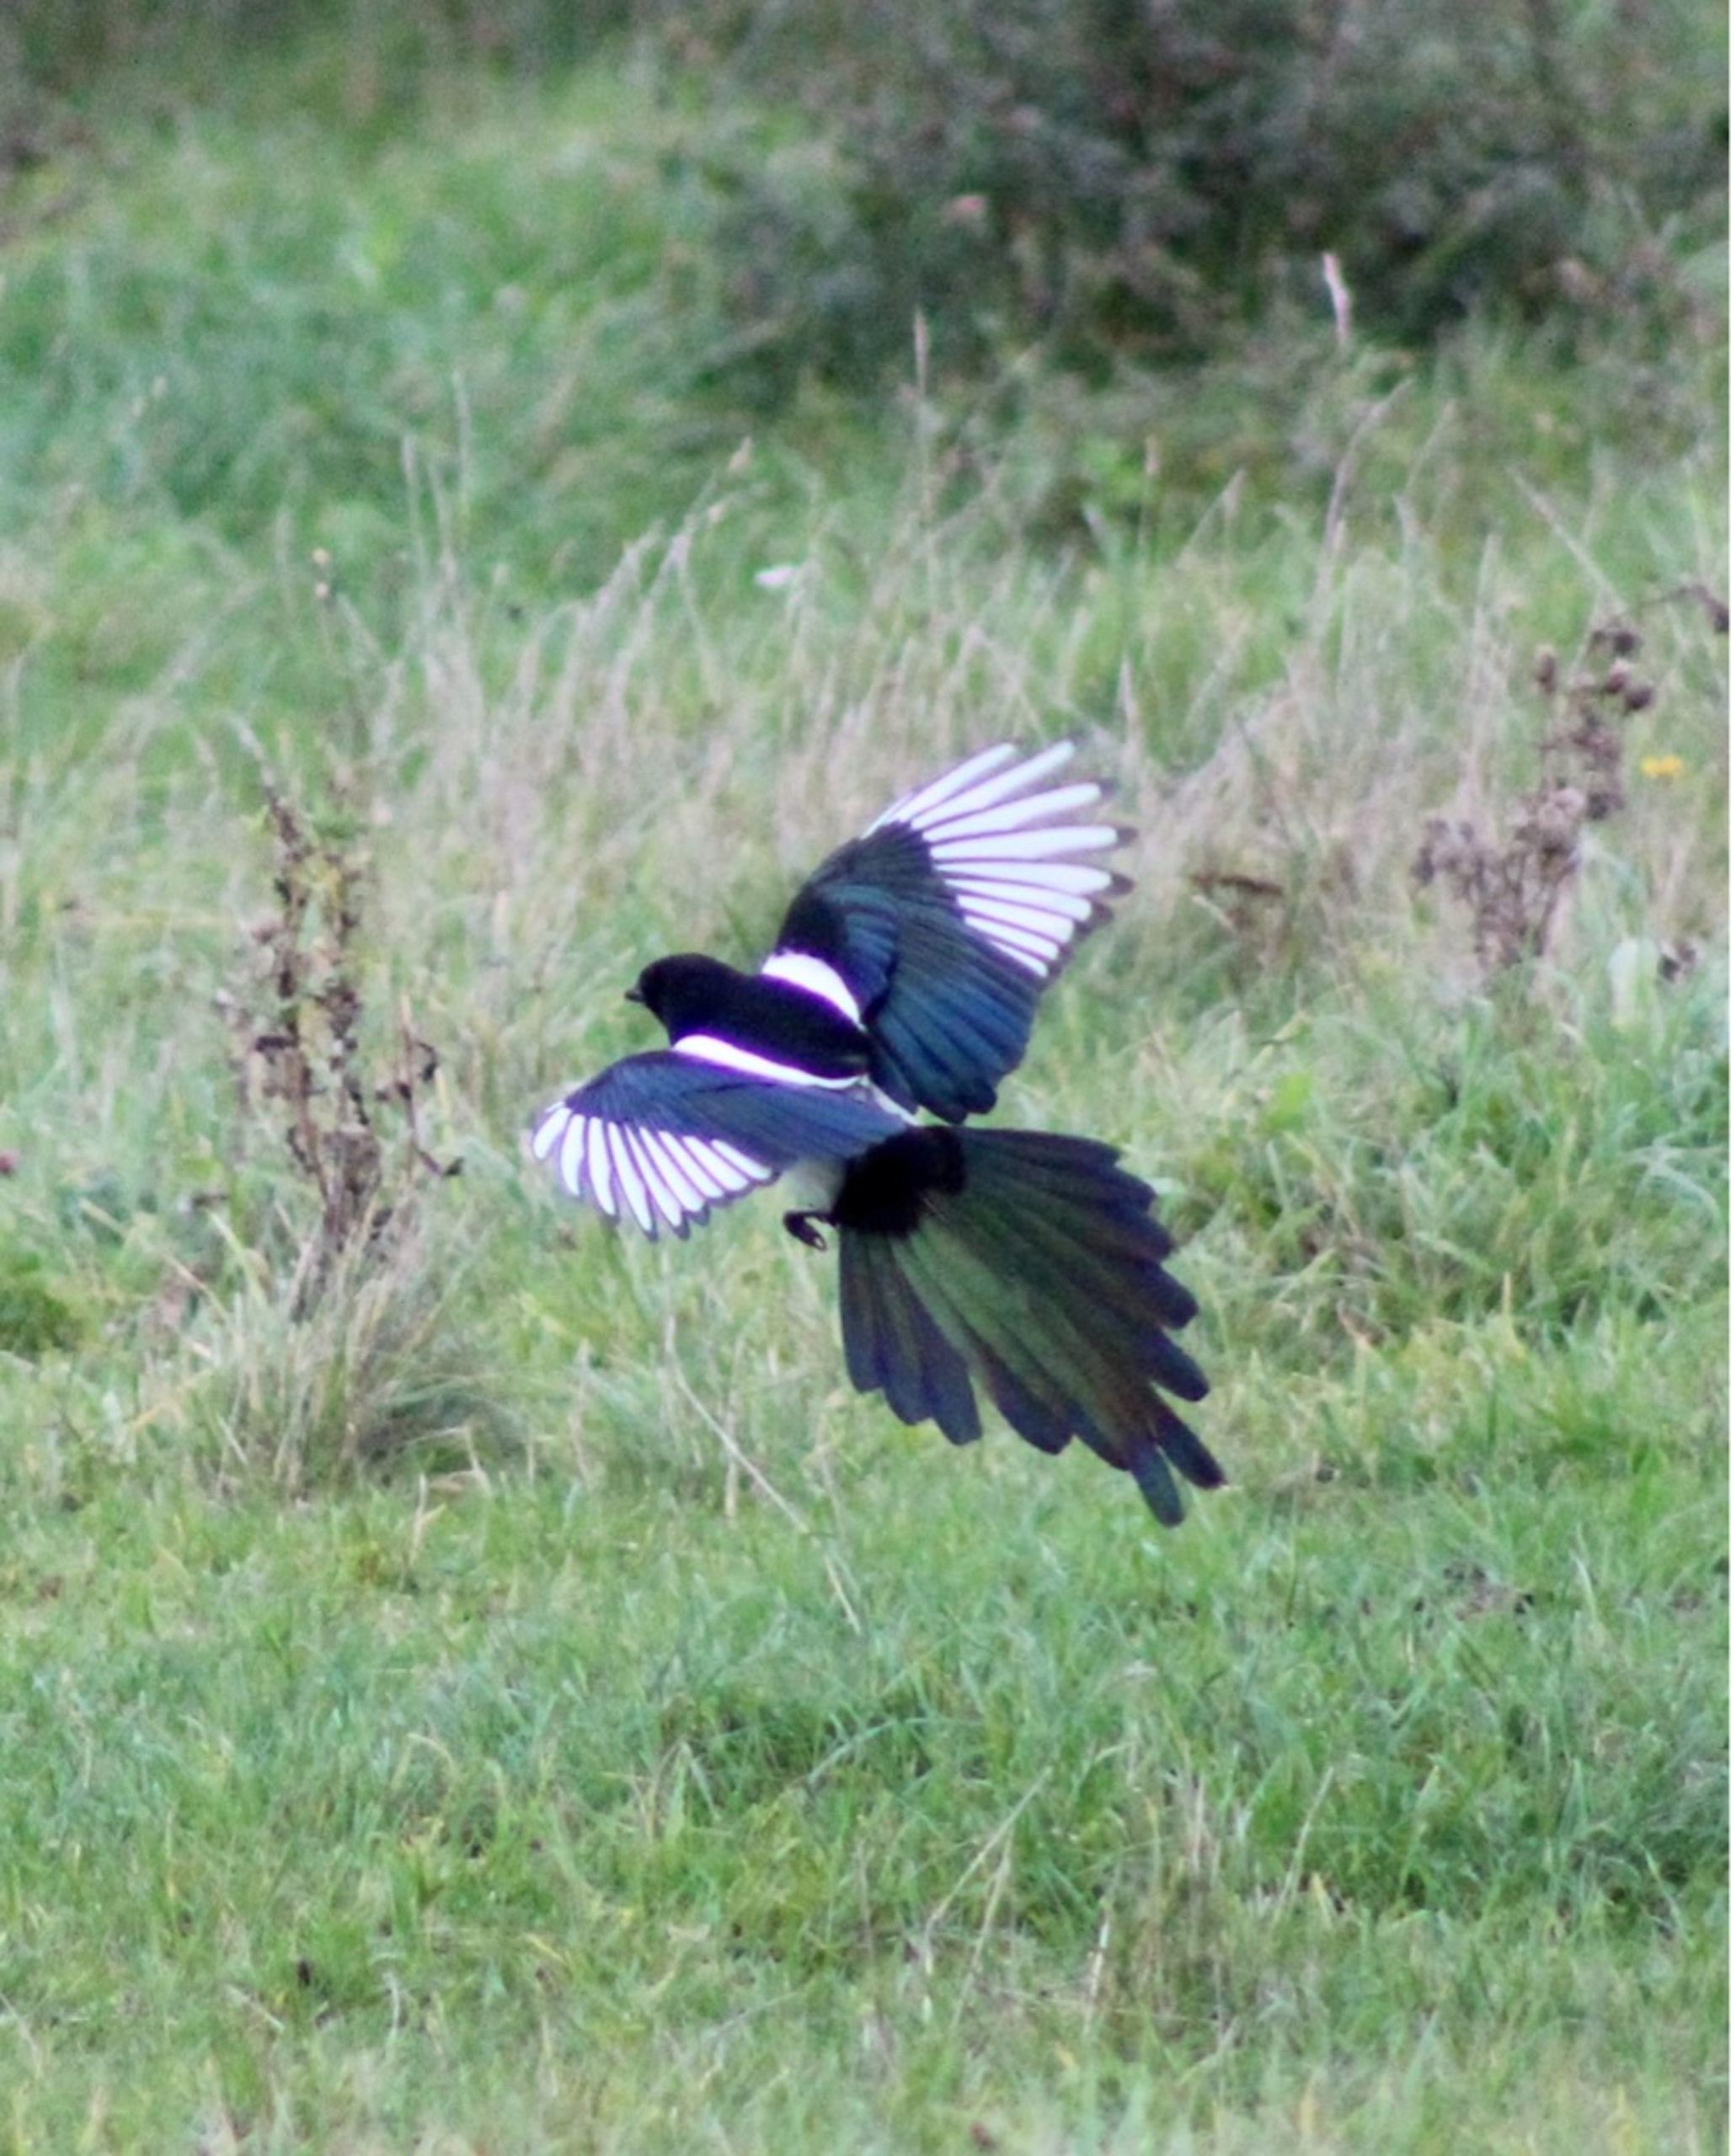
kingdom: Animalia
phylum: Chordata
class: Aves
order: Passeriformes
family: Corvidae
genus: Pica
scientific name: Pica pica
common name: Husskade
